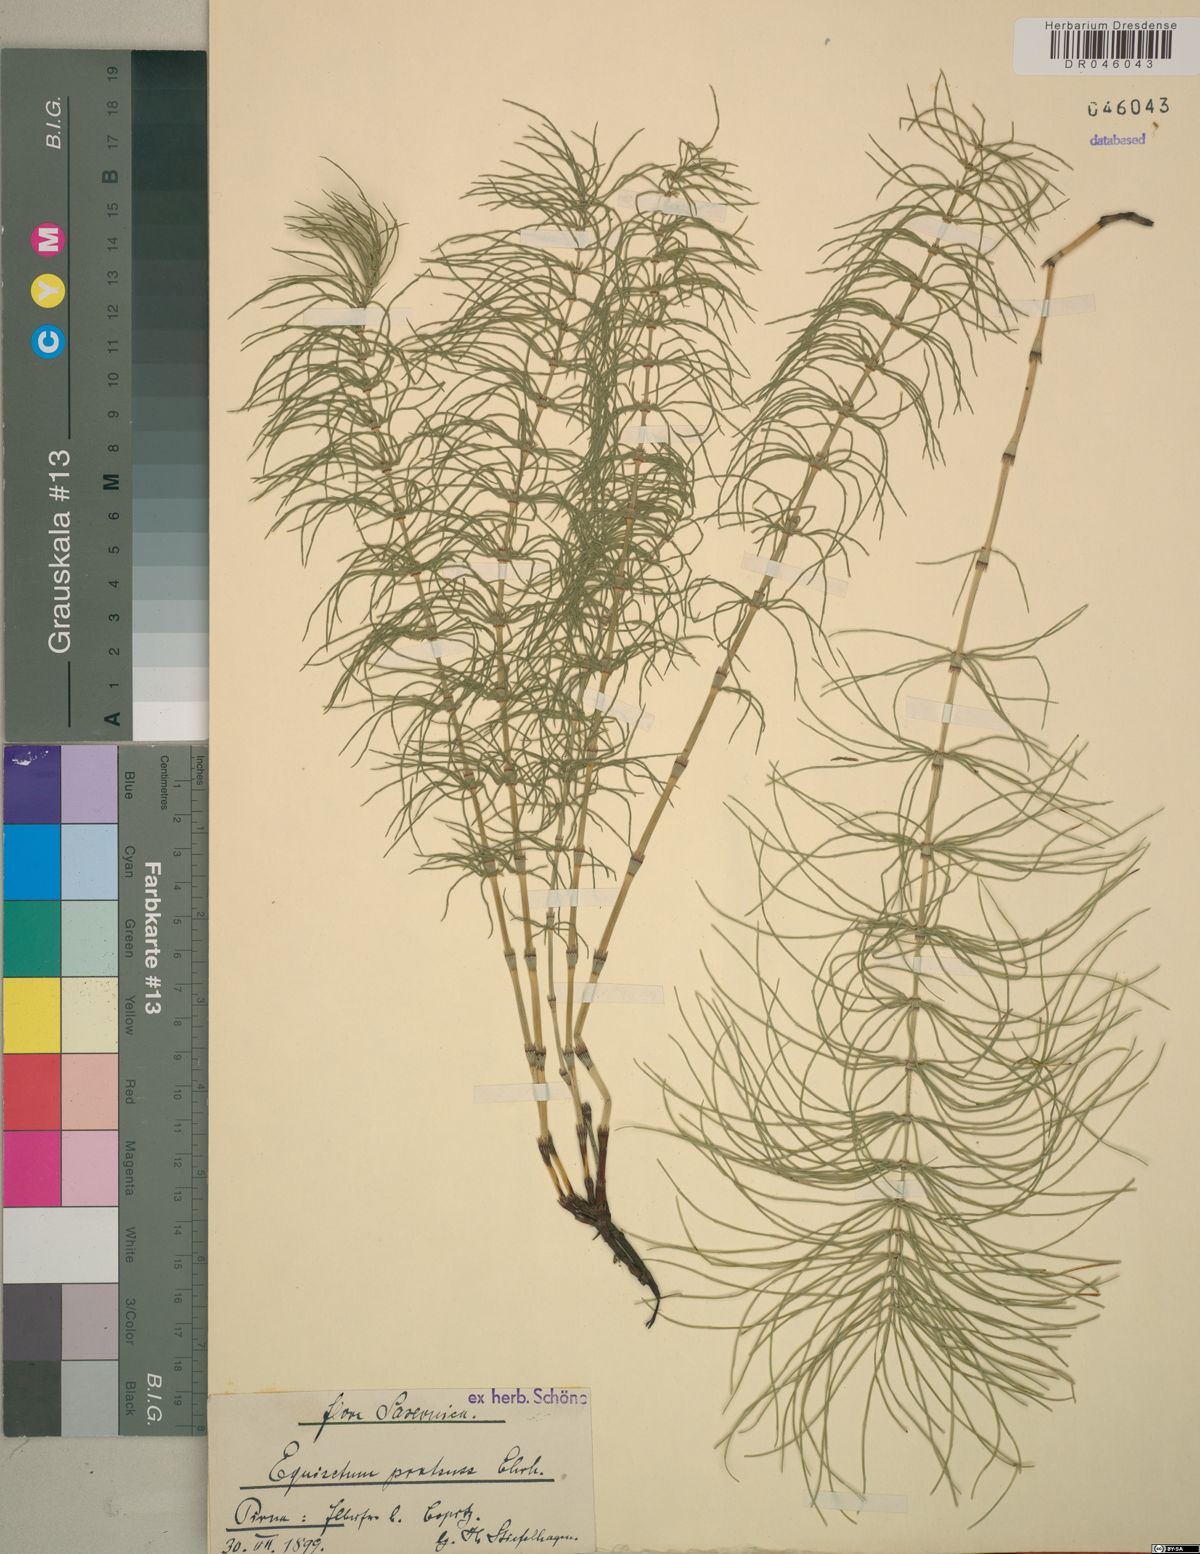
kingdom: Plantae
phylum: Tracheophyta
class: Polypodiopsida
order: Equisetales
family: Equisetaceae
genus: Equisetum
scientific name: Equisetum pratense
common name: Meadow horsetail
